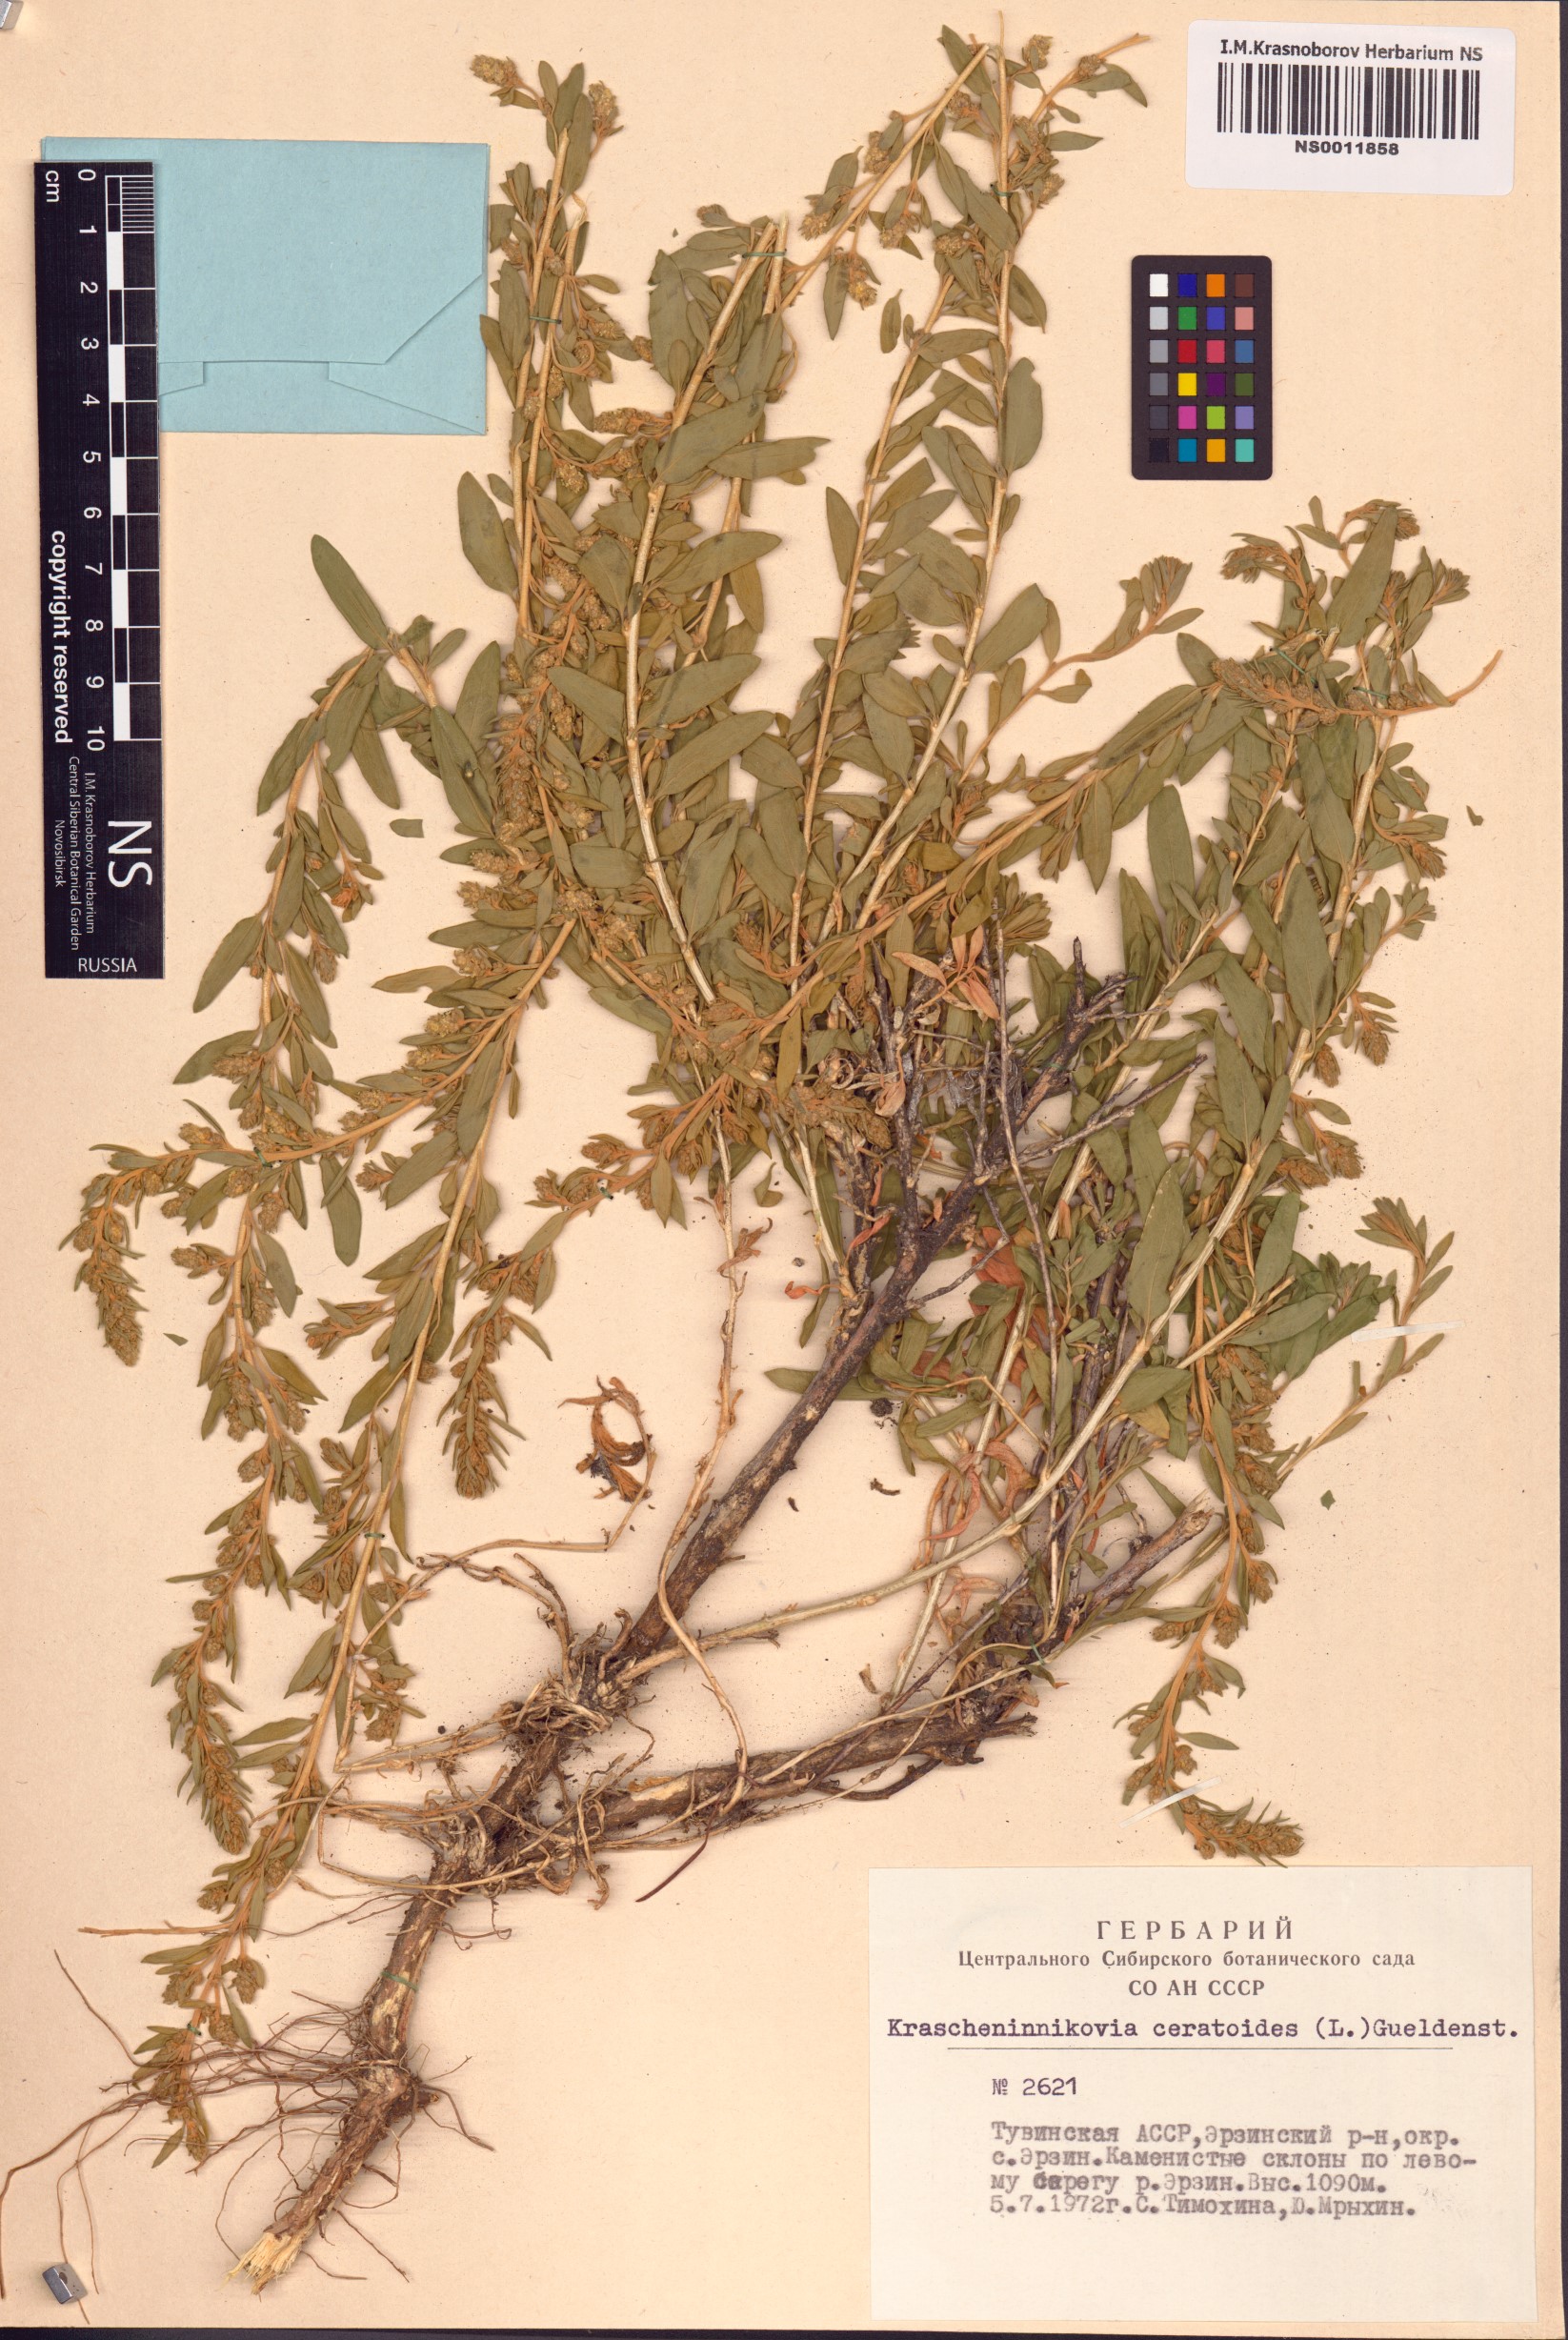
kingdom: Plantae
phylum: Tracheophyta
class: Magnoliopsida
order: Caryophyllales
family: Amaranthaceae
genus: Krascheninnikovia
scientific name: Krascheninnikovia ceratoides
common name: Pamirian winterfat
